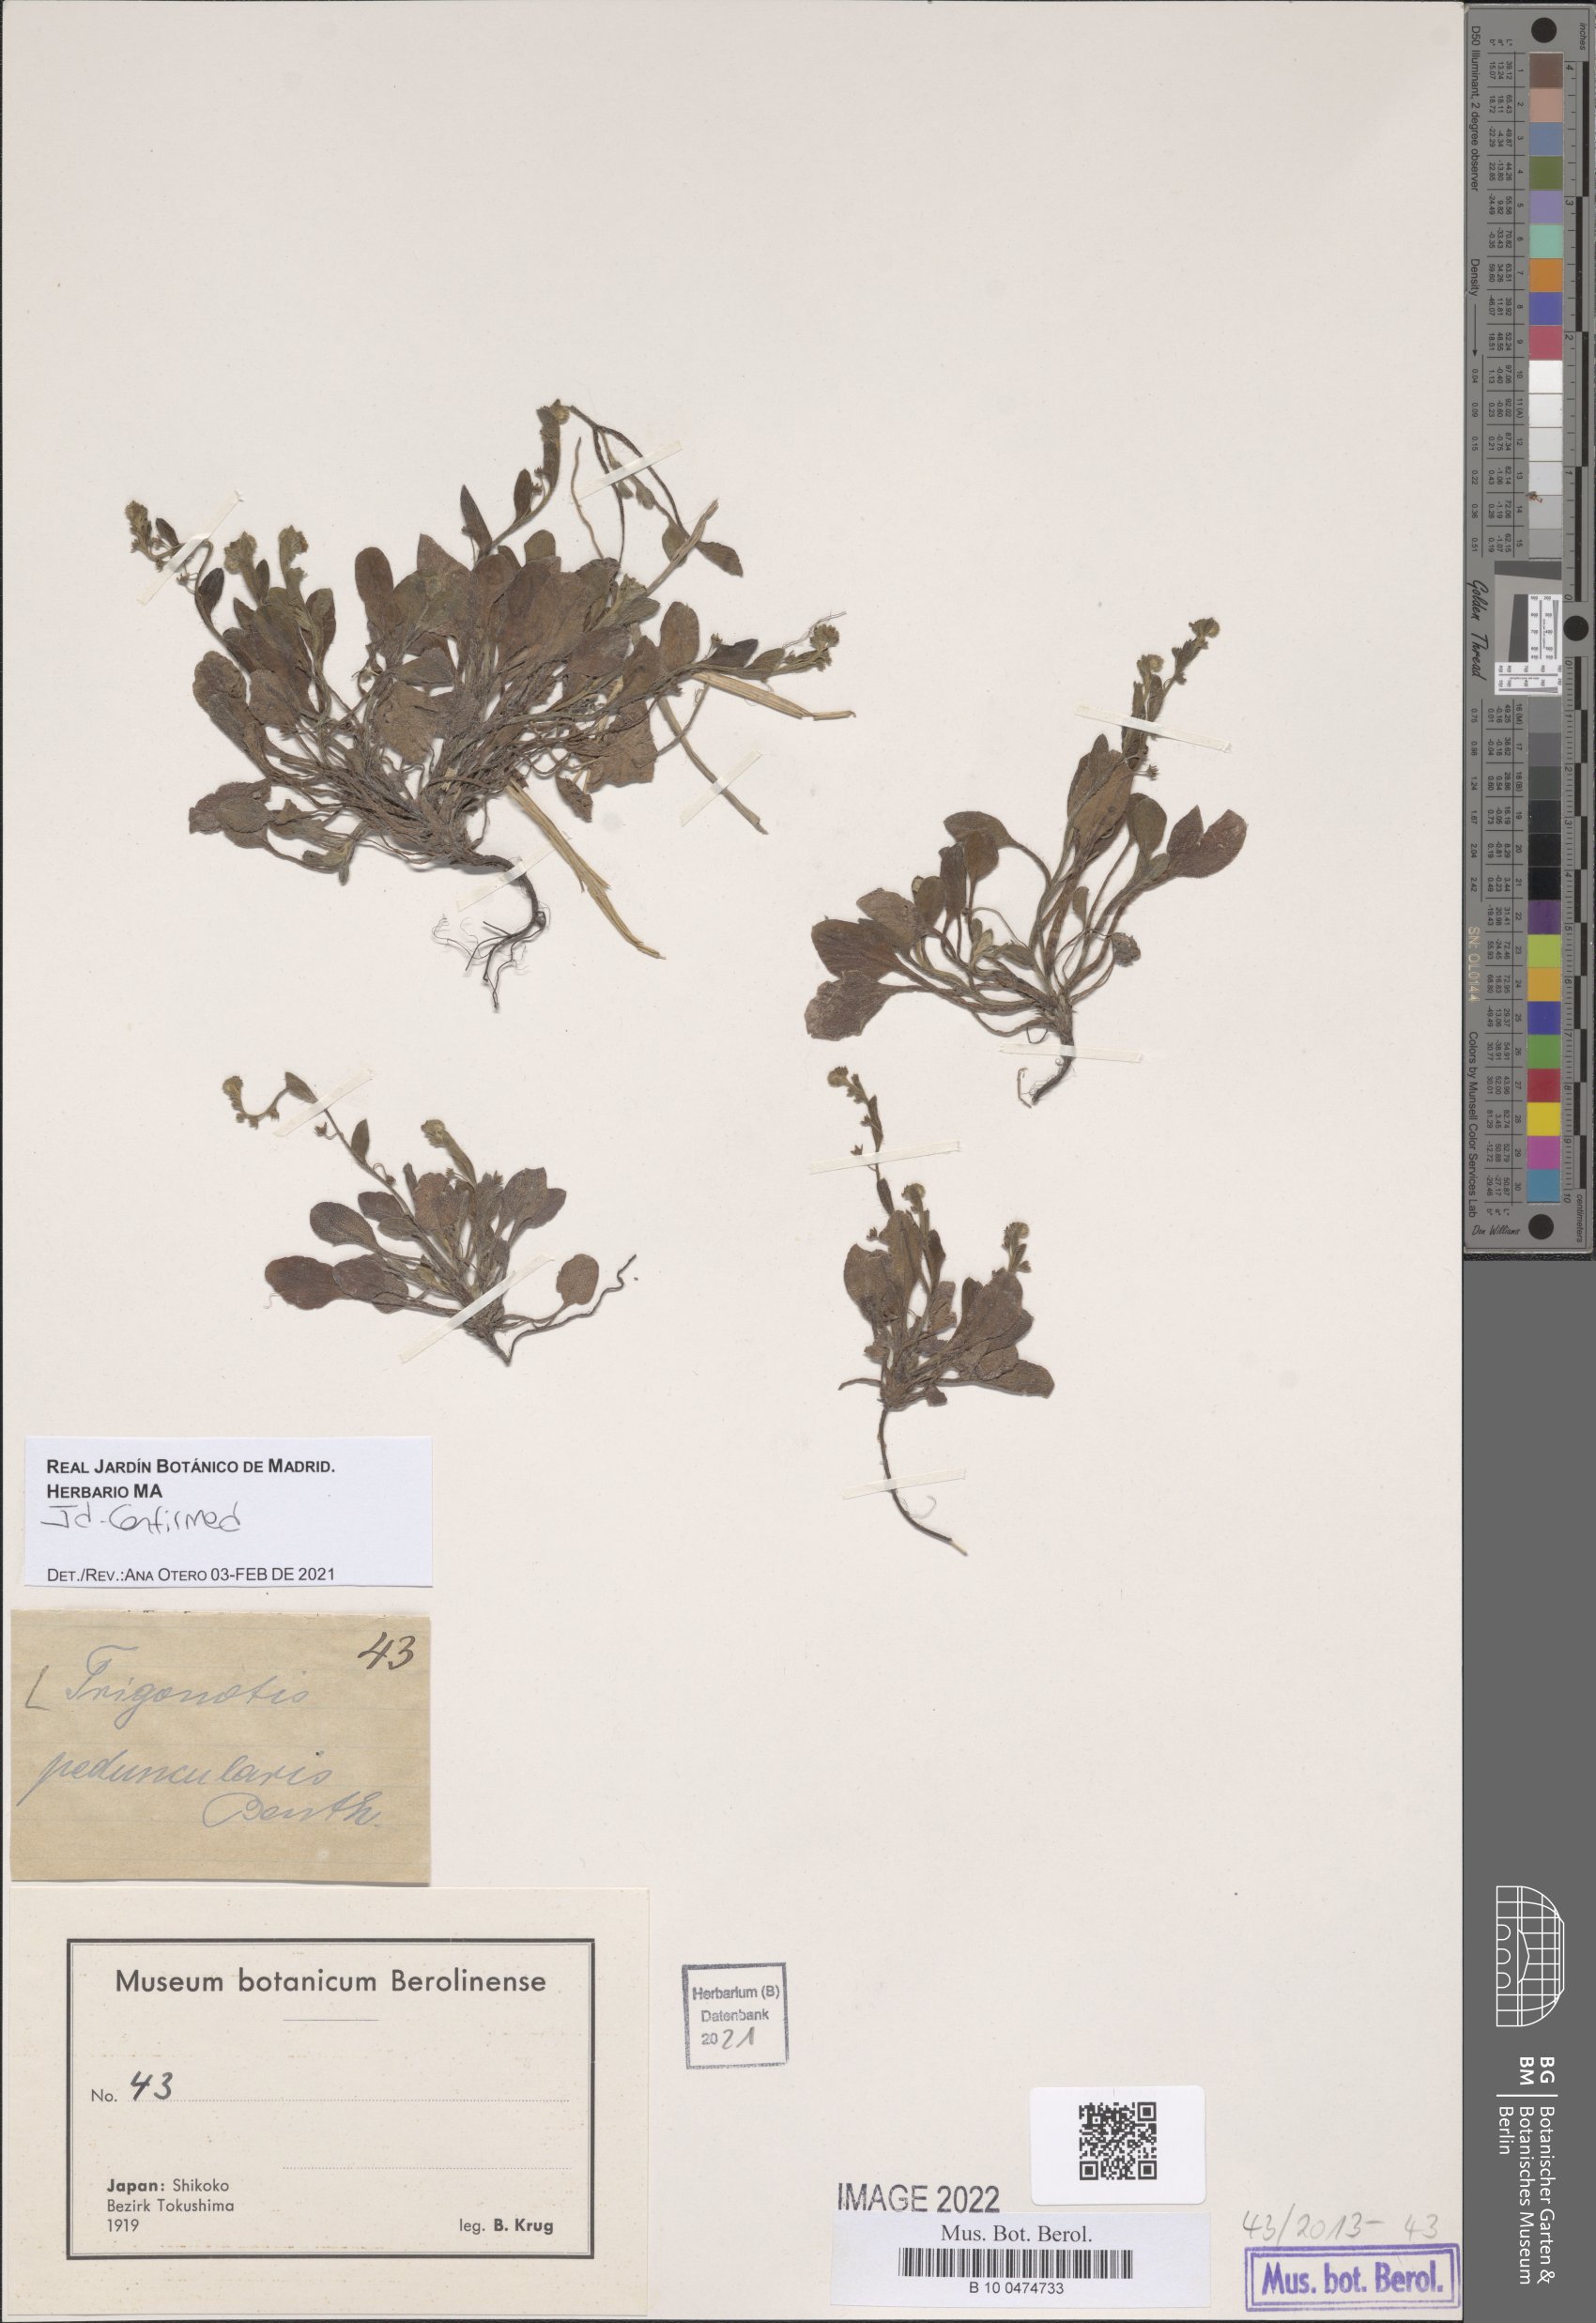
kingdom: Plantae
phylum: Tracheophyta
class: Magnoliopsida
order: Boraginales
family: Boraginaceae
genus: Trigonotis
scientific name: Trigonotis peduncularis
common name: Cucumber herb
